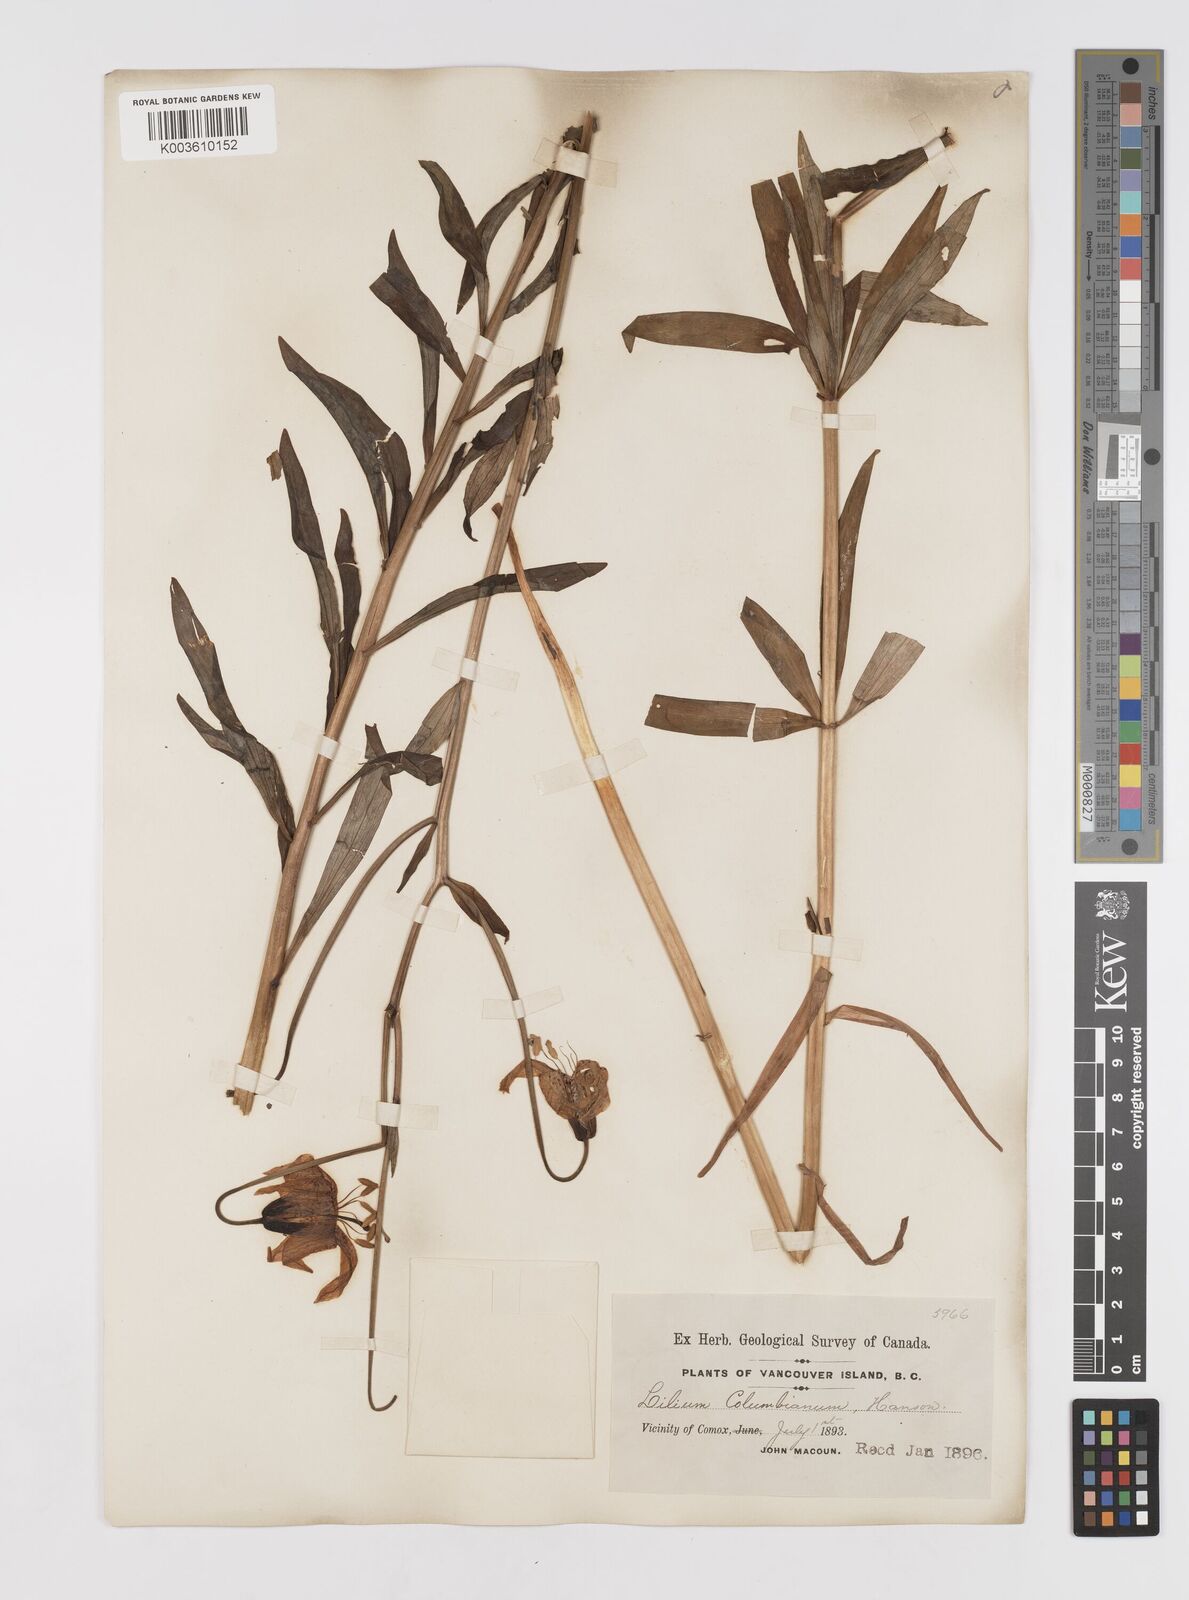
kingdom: Plantae
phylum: Tracheophyta
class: Liliopsida
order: Liliales
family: Liliaceae
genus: Lilium
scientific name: Lilium columbianum
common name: Columbia lily
